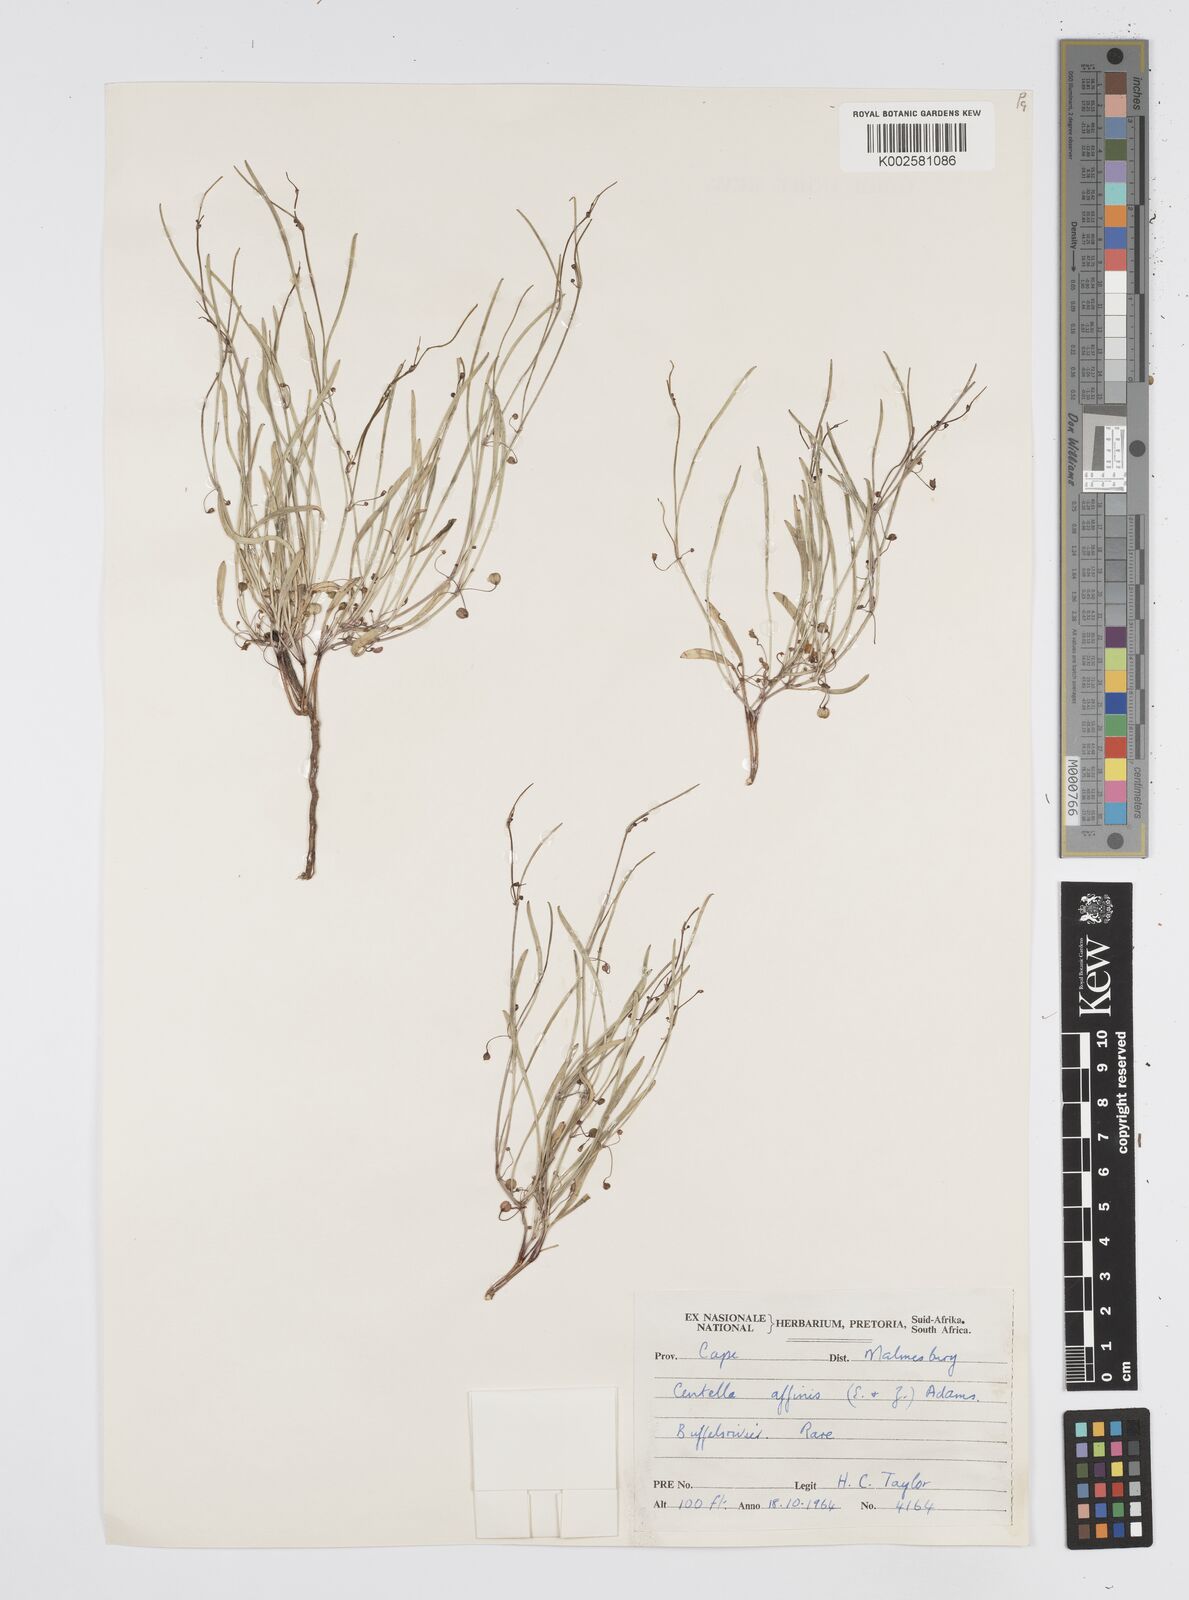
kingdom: Plantae
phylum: Tracheophyta
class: Magnoliopsida
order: Apiales
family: Apiaceae
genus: Centella
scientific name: Centella affinis
